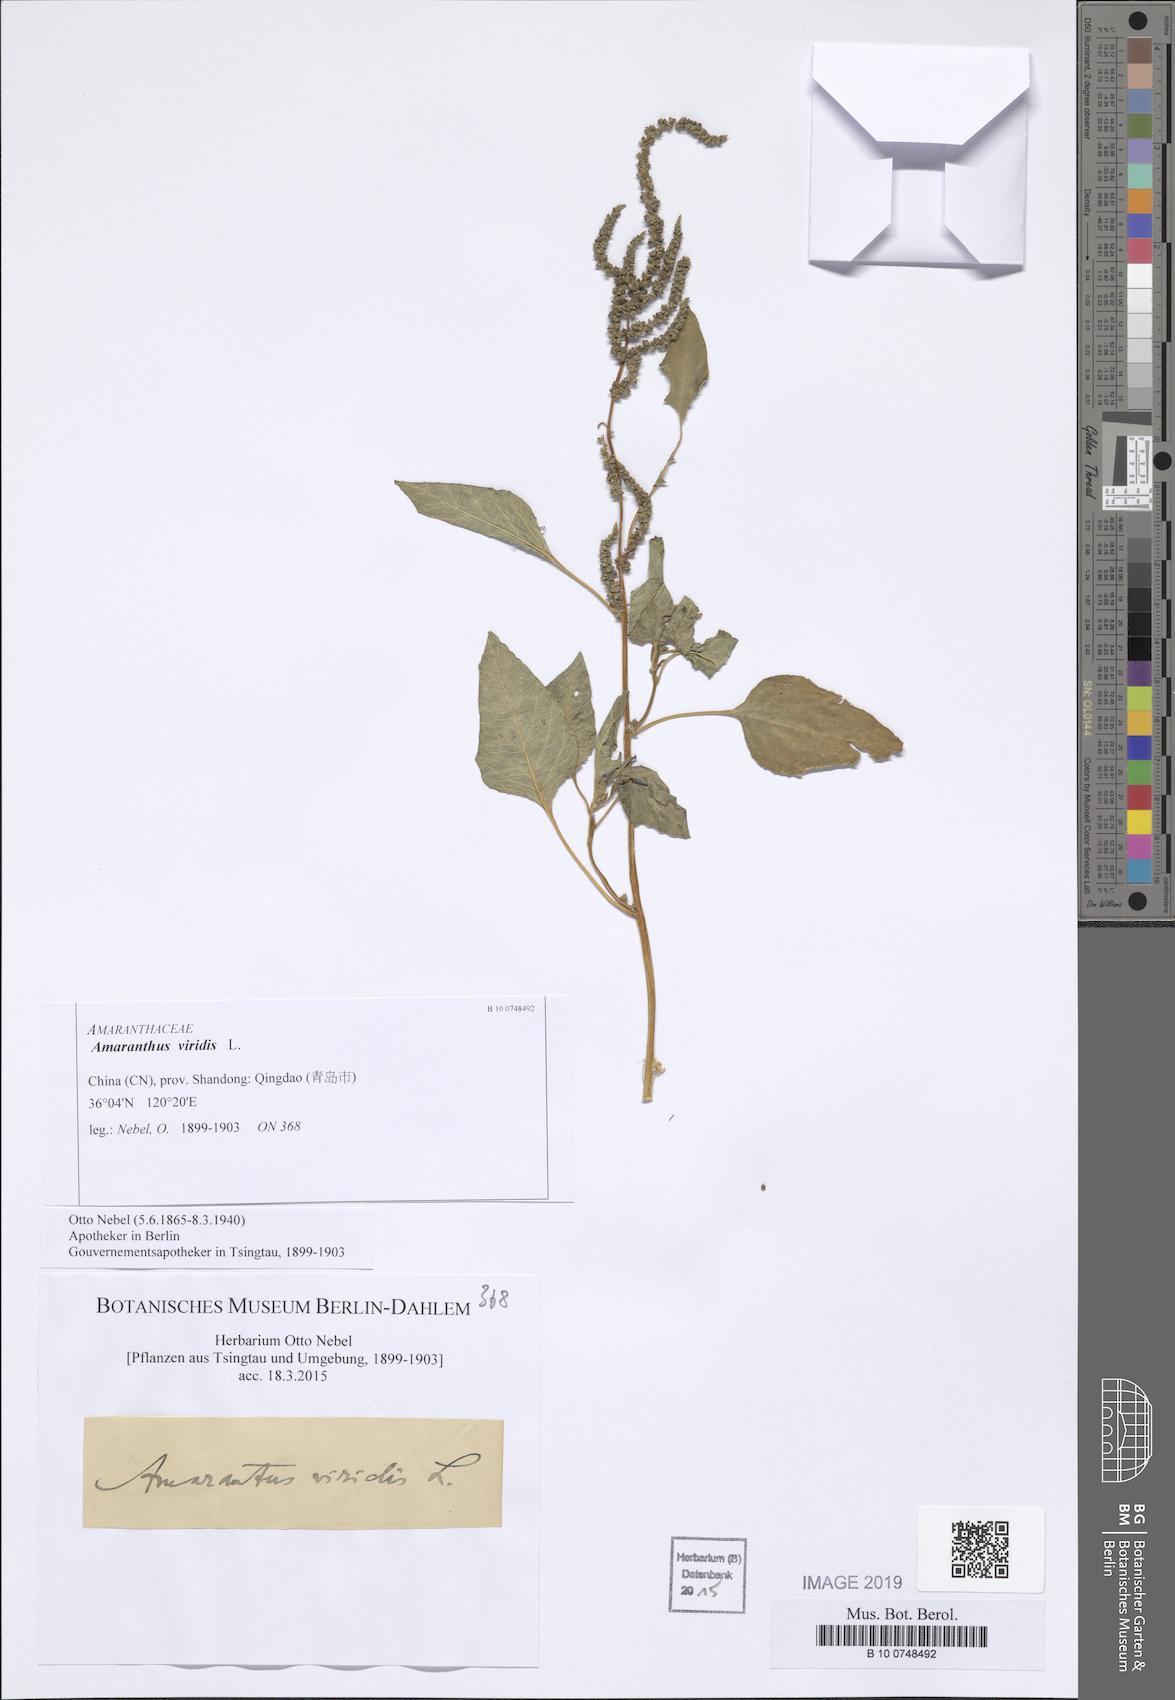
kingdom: Plantae
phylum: Tracheophyta
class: Magnoliopsida
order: Caryophyllales
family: Amaranthaceae
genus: Amaranthus
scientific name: Amaranthus viridis
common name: Slender amaranth
